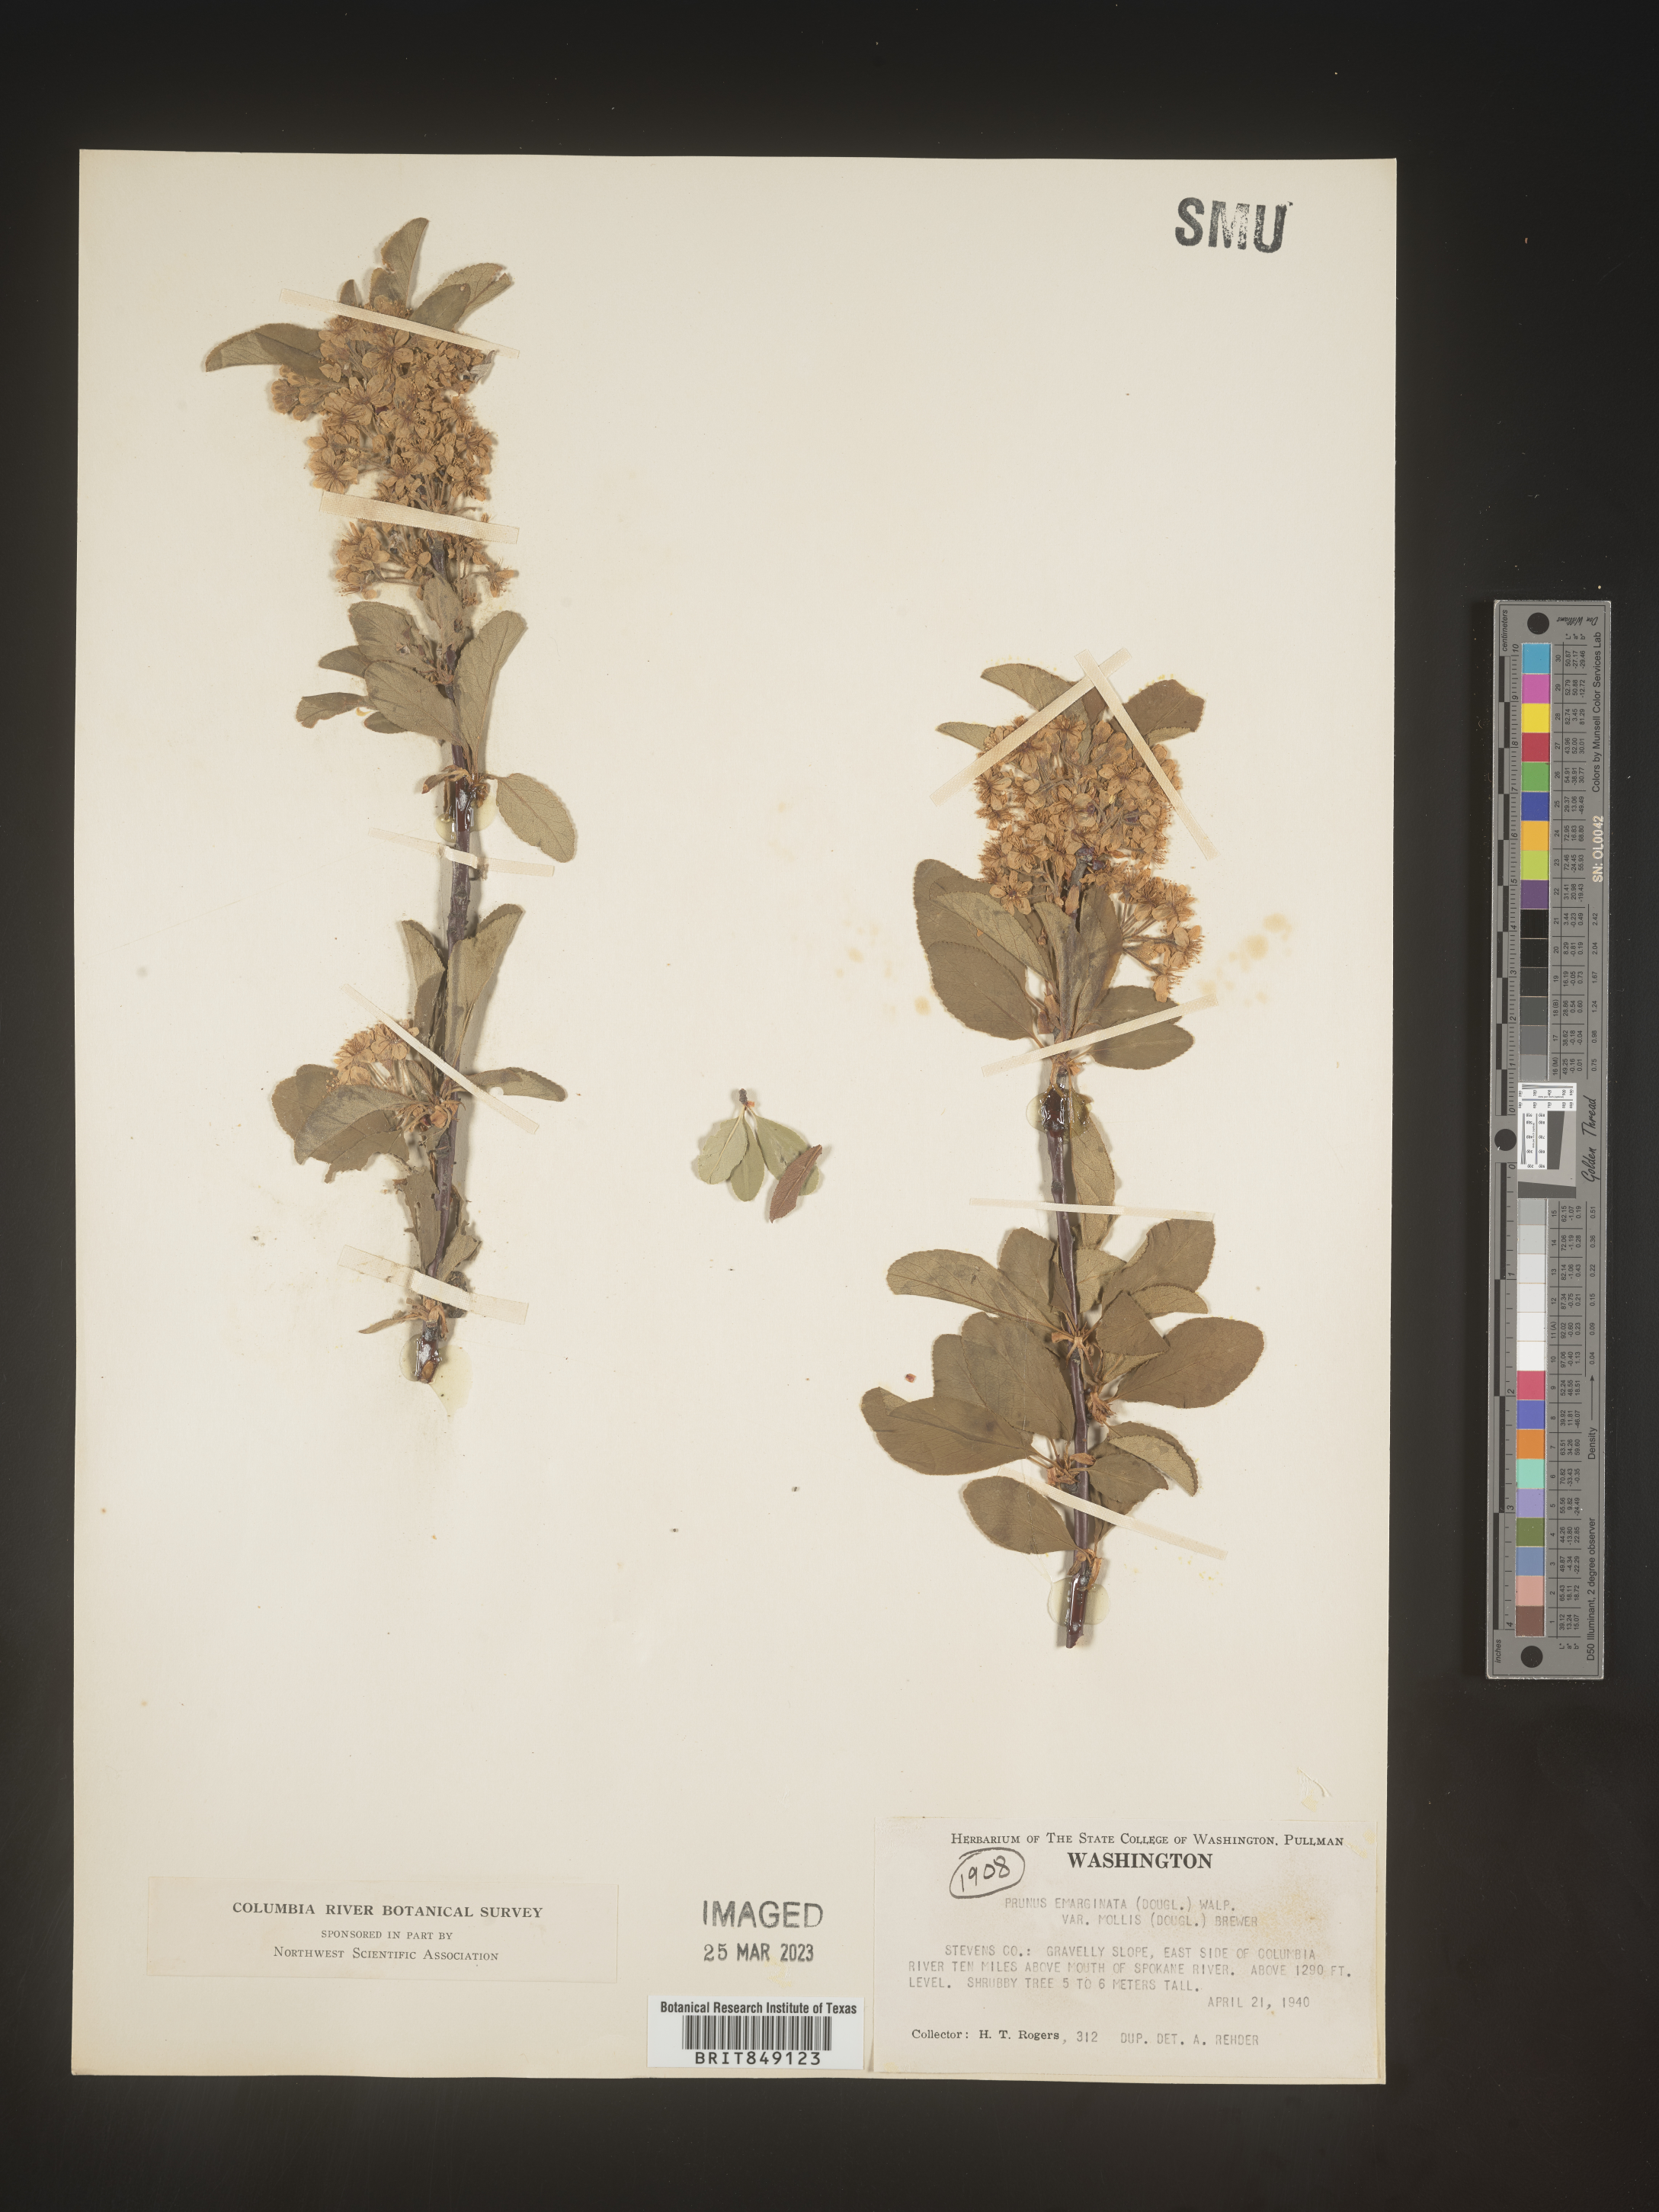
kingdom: Plantae
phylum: Tracheophyta
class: Magnoliopsida
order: Rosales
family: Rosaceae
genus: Prunus
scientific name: Prunus emarginata
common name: Bitter cherry
